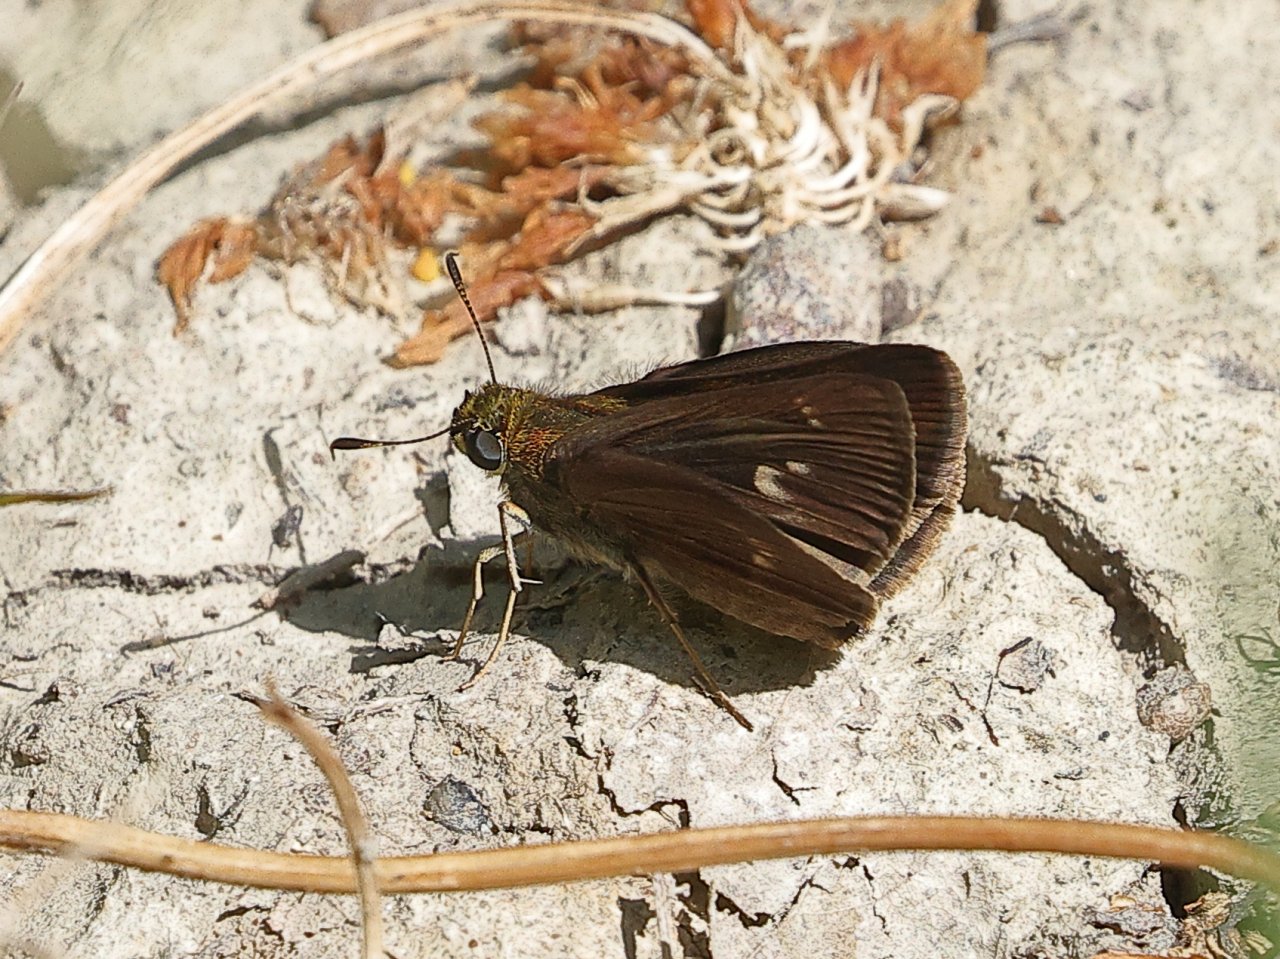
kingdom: Animalia
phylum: Arthropoda
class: Insecta
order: Lepidoptera
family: Hesperiidae
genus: Vernia
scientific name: Vernia verna
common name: Little Glassywing
